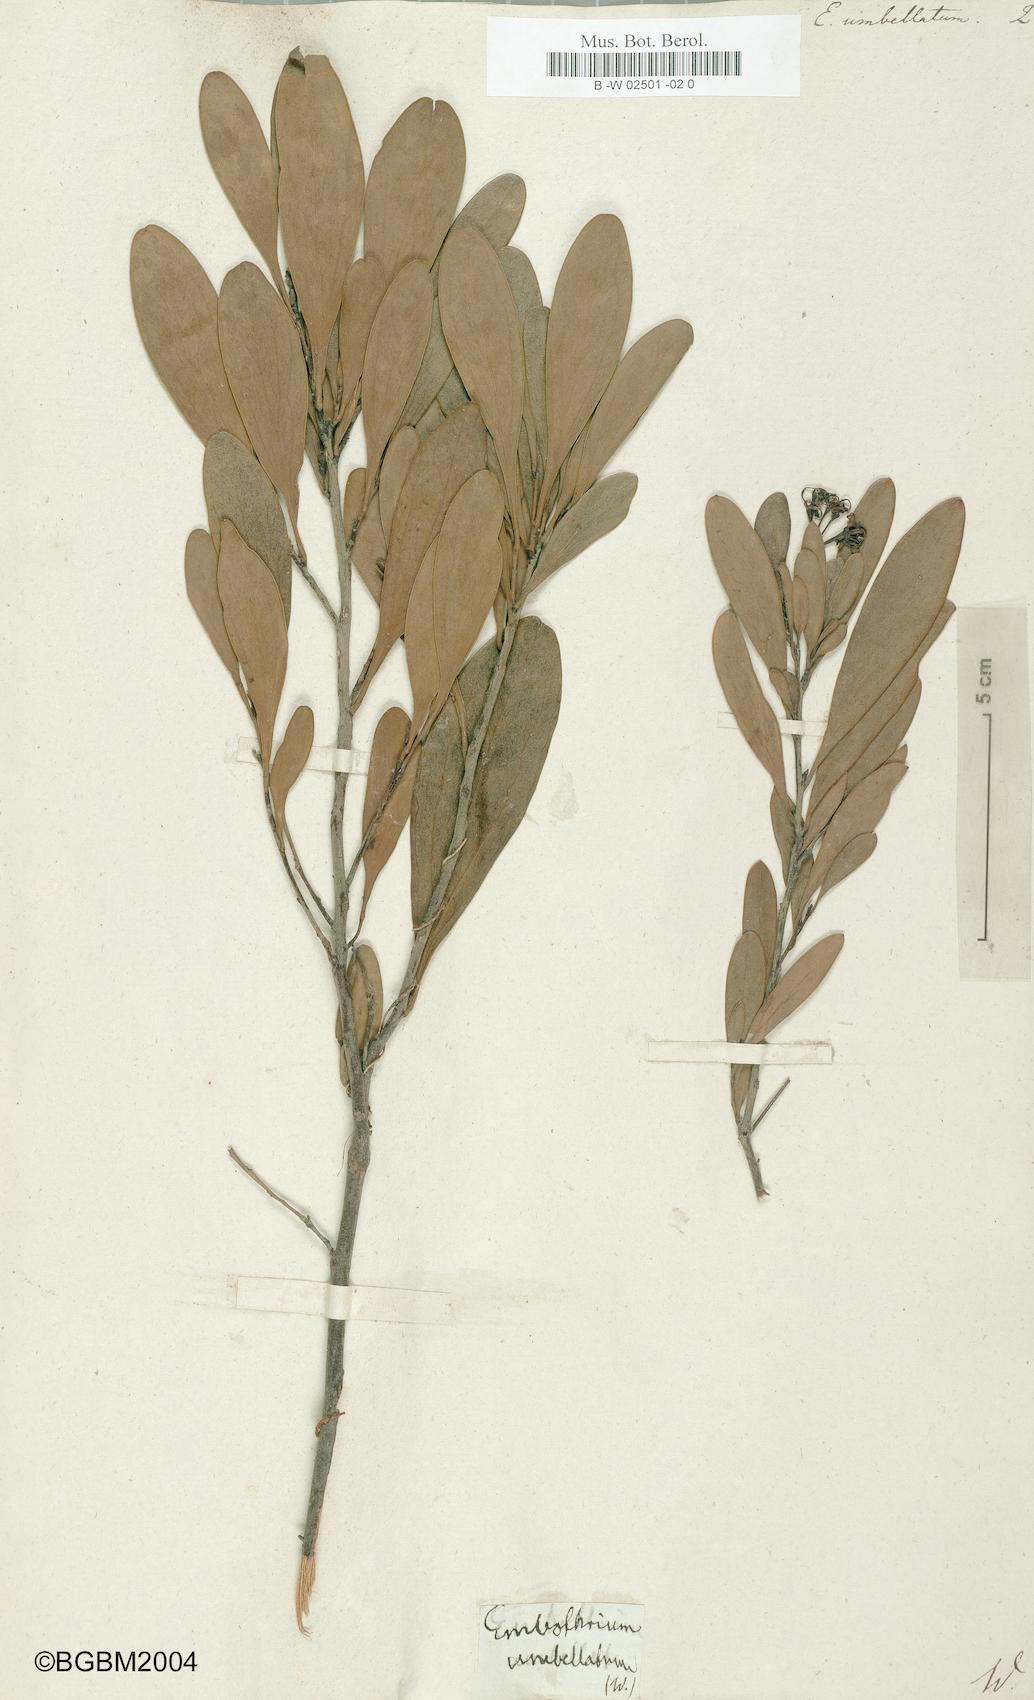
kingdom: Plantae
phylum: Tracheophyta
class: Magnoliopsida
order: Proteales
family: Proteaceae
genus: Stenocarpus
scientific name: Stenocarpus umbellifer
